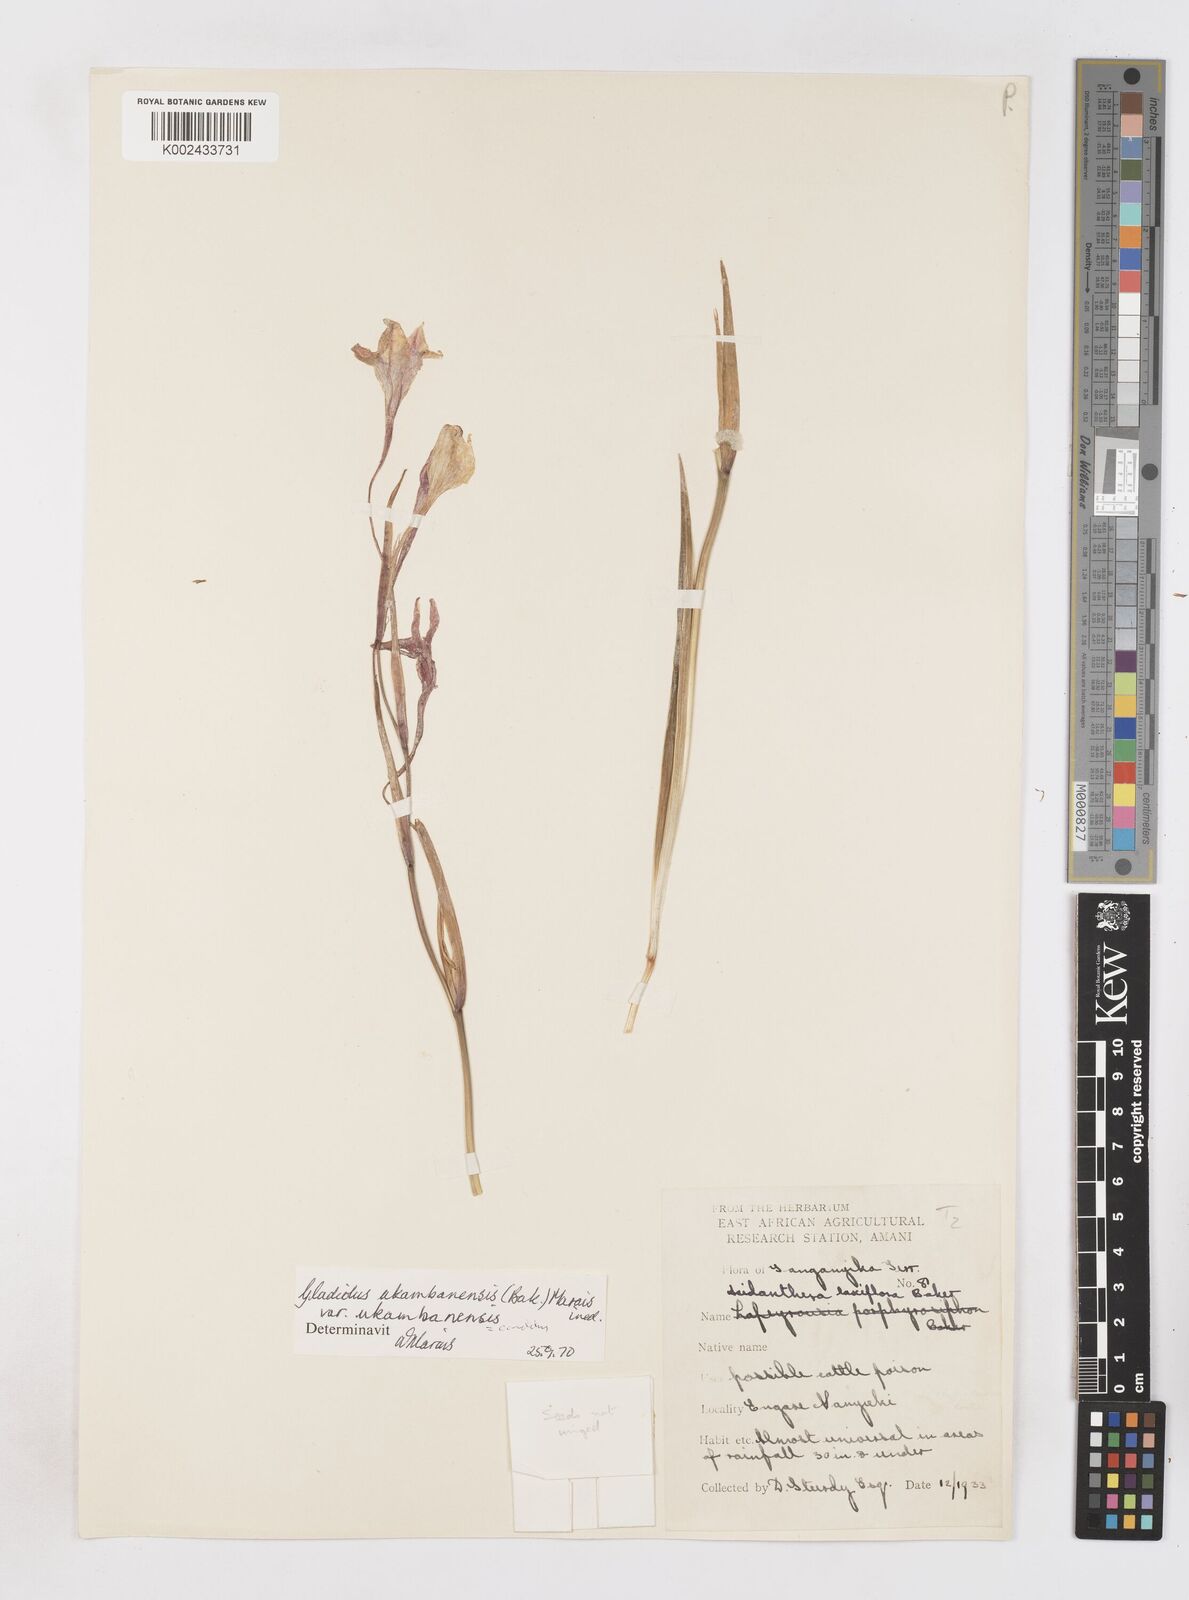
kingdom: Plantae
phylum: Tracheophyta
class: Liliopsida
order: Asparagales
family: Iridaceae
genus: Gladiolus
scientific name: Gladiolus candidus
